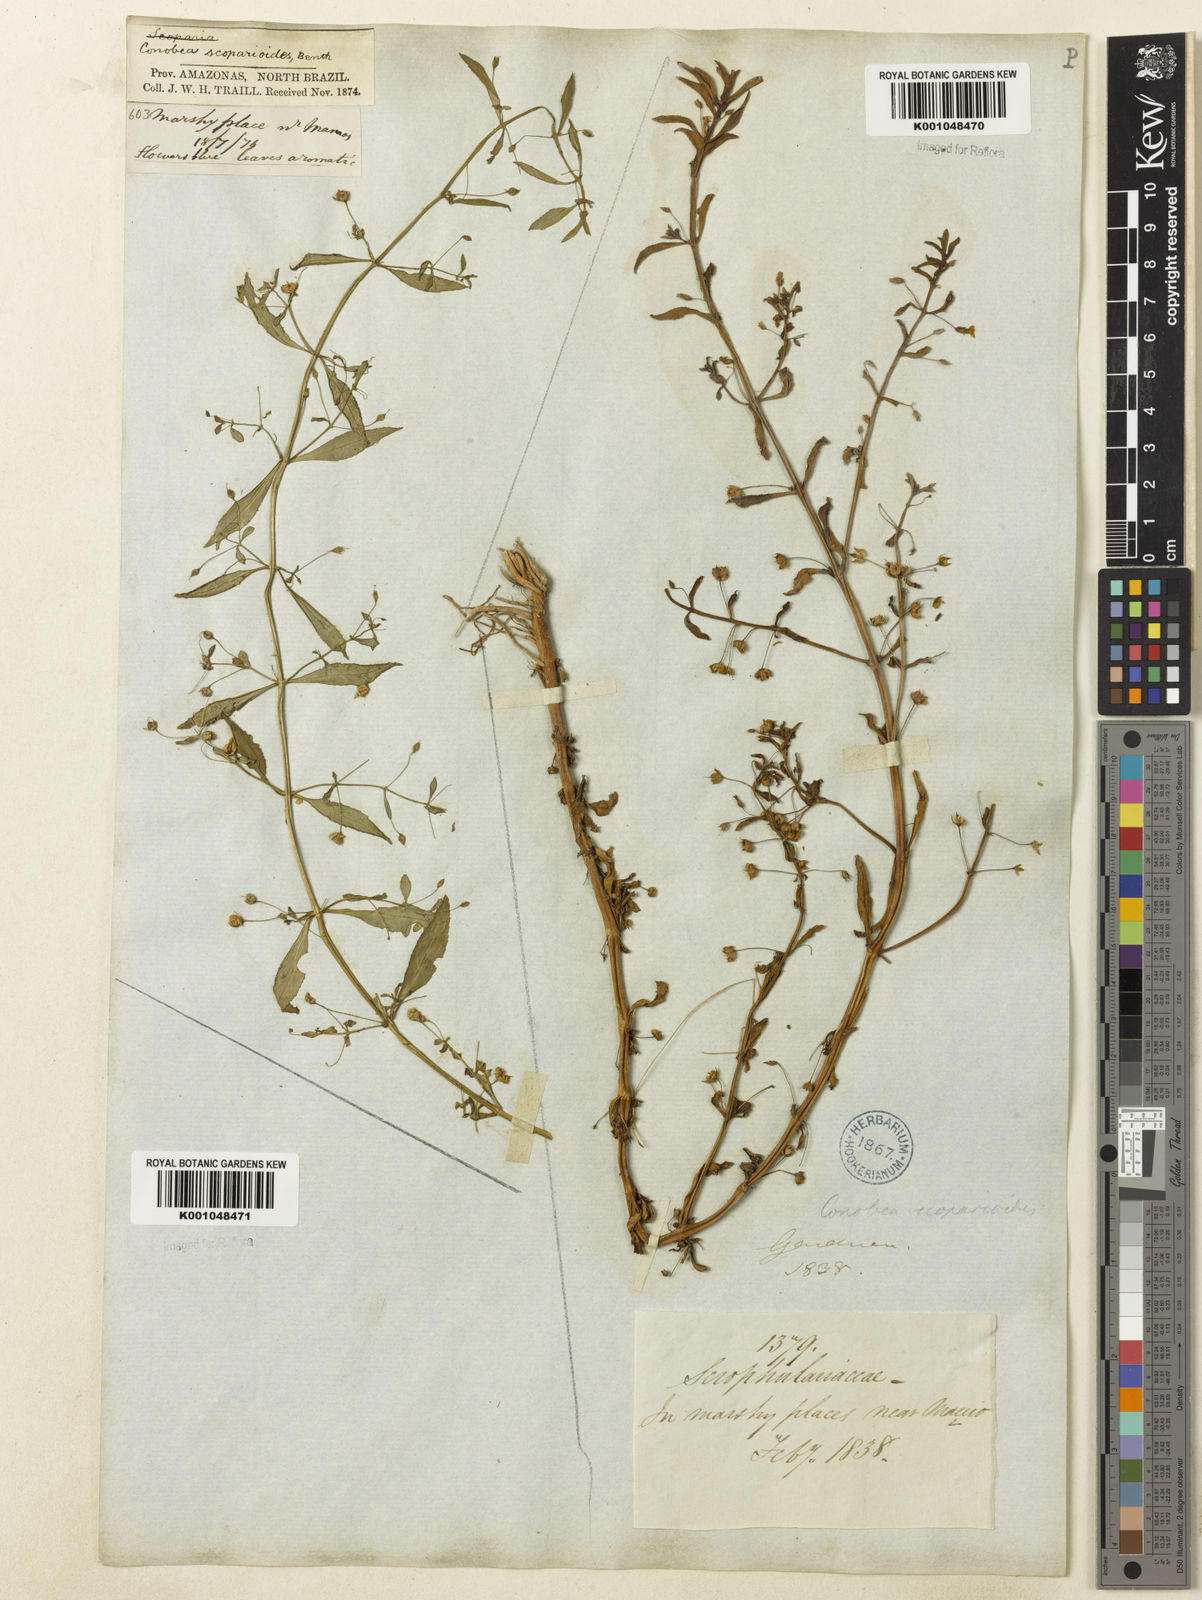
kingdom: Plantae
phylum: Tracheophyta
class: Magnoliopsida
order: Lamiales
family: Plantaginaceae
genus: Conobea
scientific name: Conobea scoparioides
